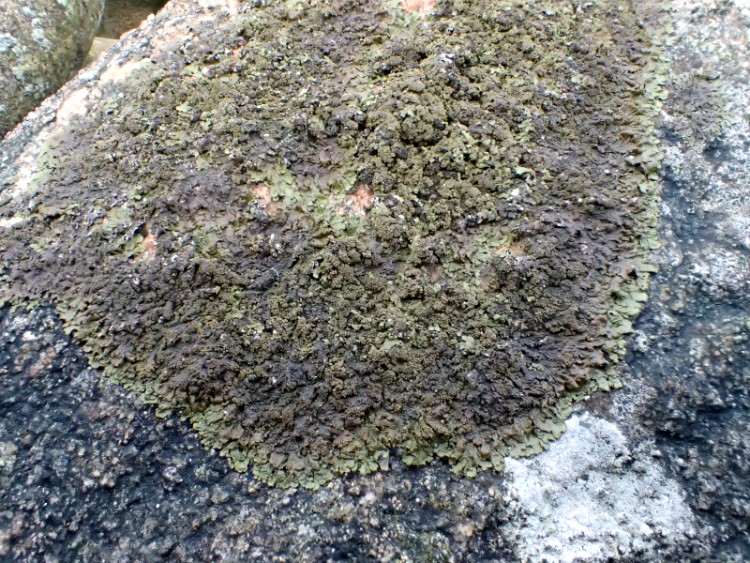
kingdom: Fungi
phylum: Ascomycota
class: Lecanoromycetes
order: Lecanorales
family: Parmeliaceae
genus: Xanthoparmelia
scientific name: Xanthoparmelia verruculifera
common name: småknoppet skållav
